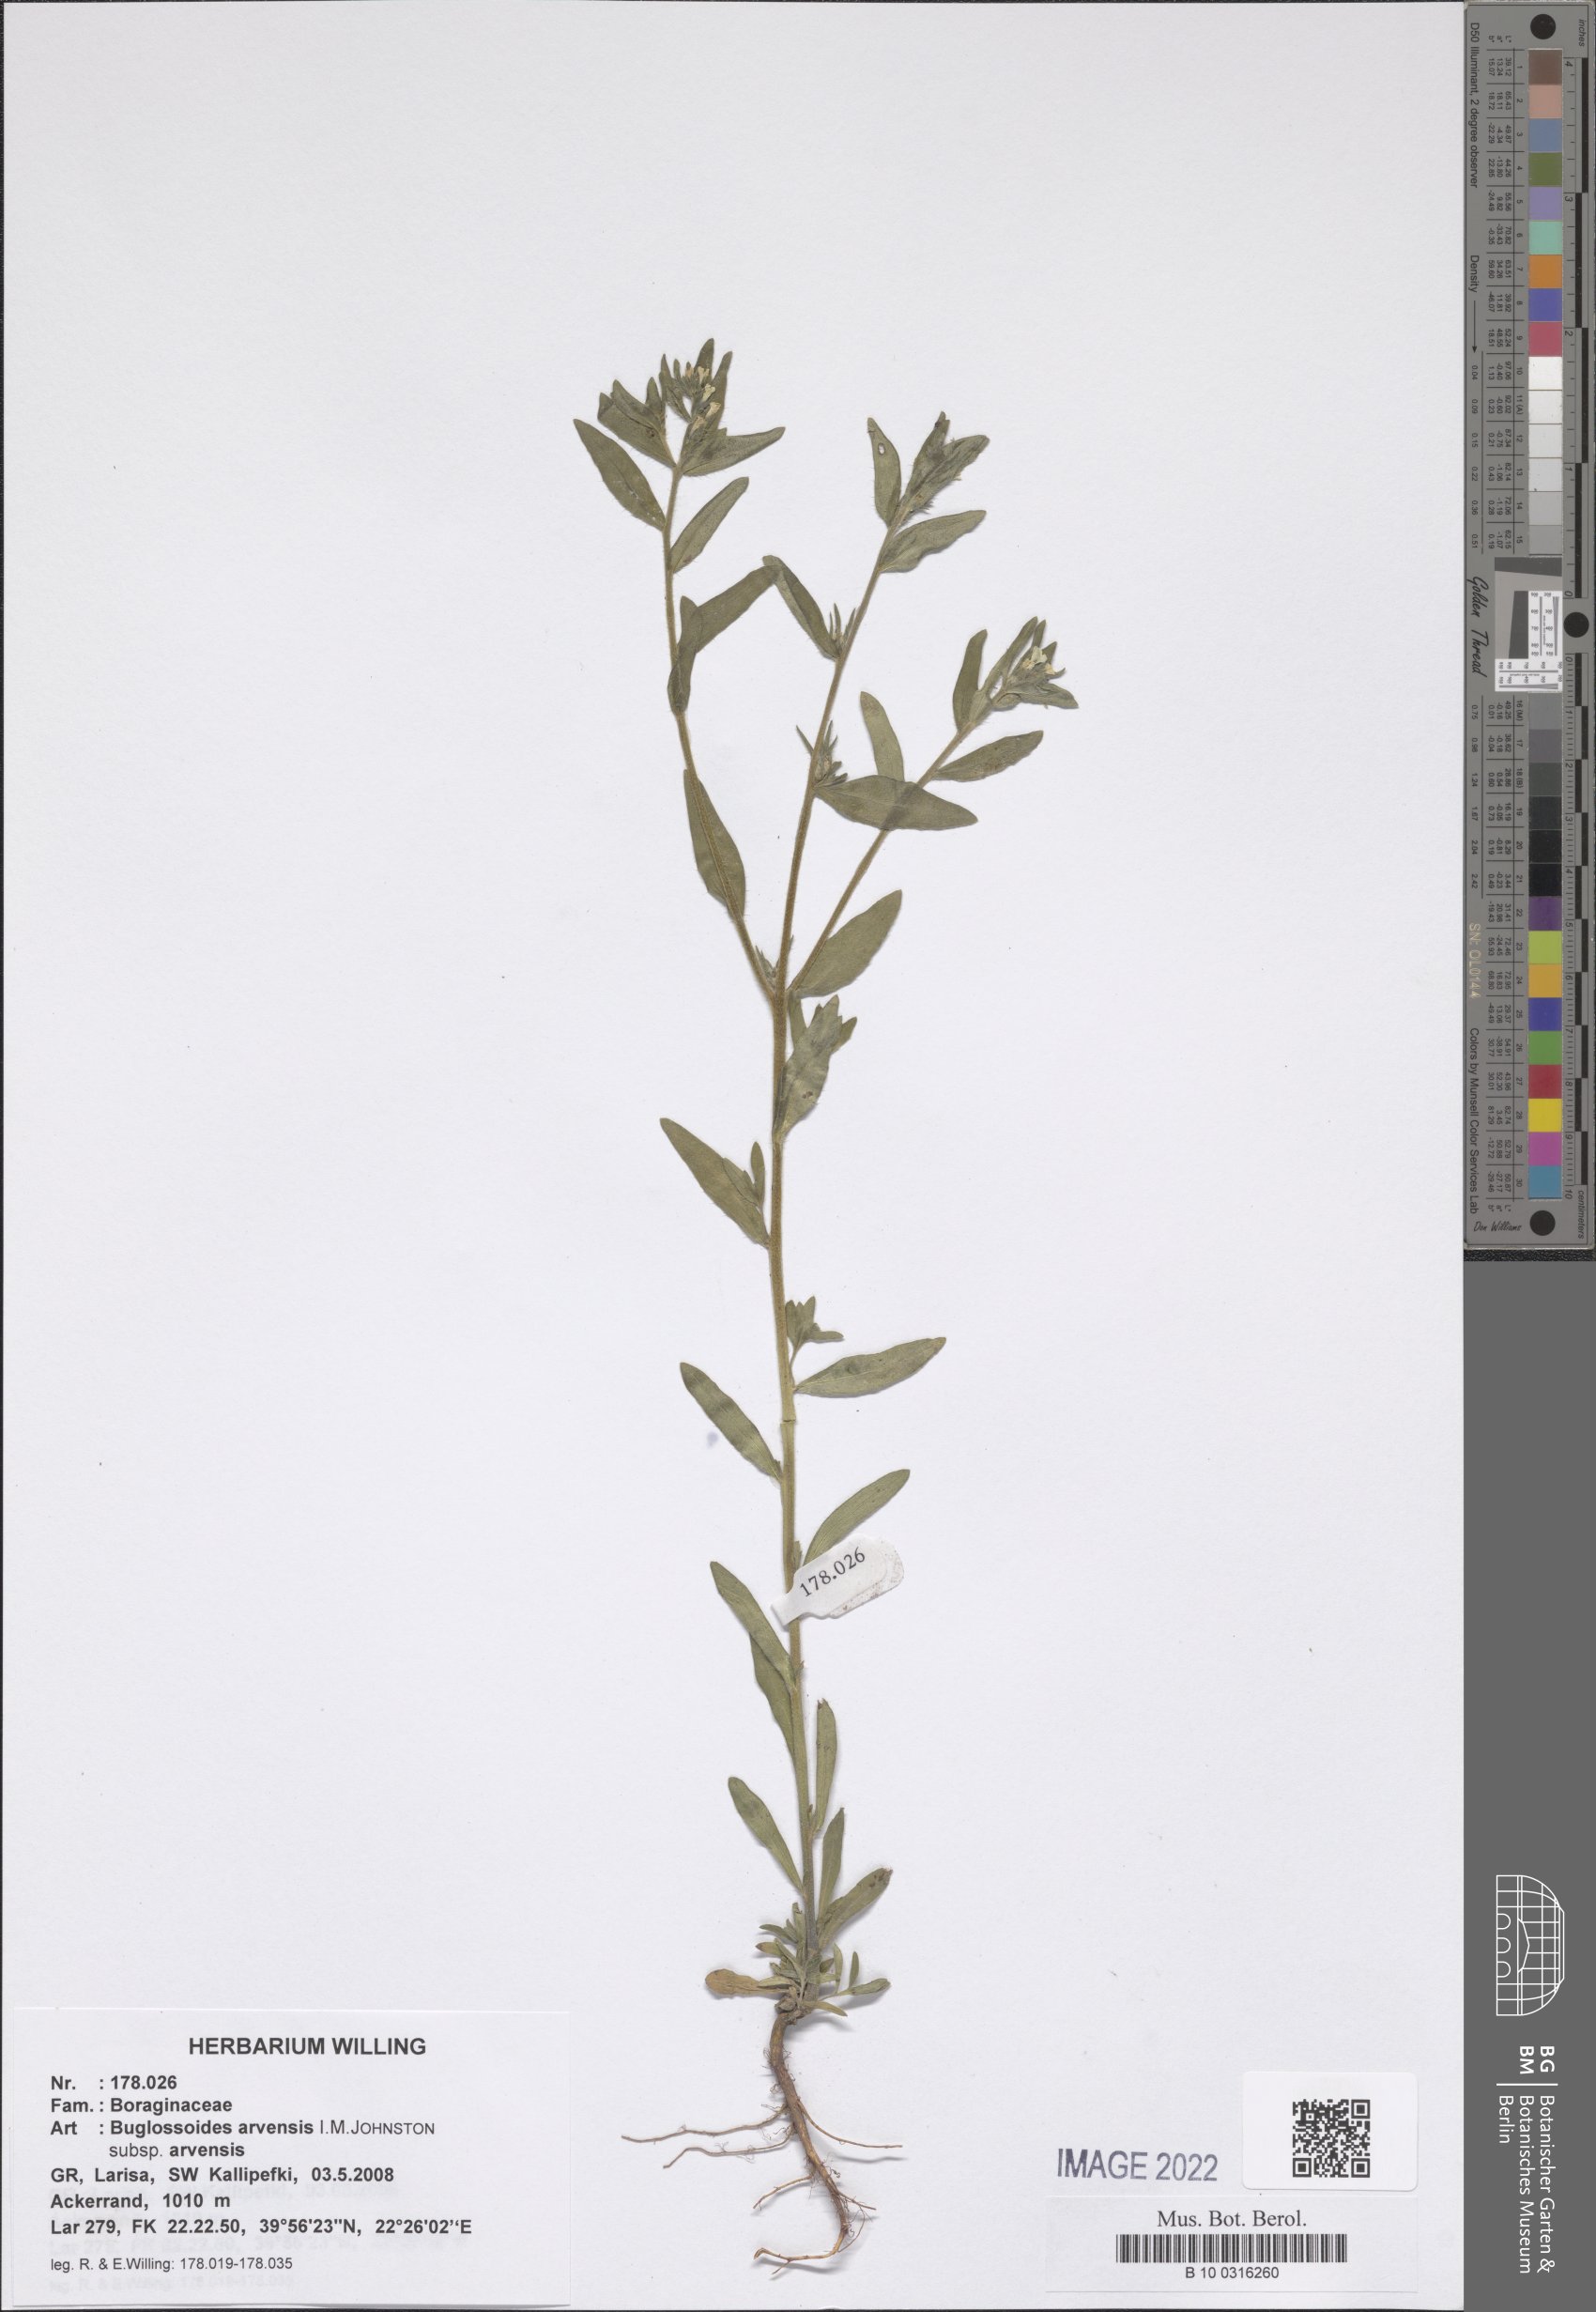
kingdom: Plantae
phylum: Tracheophyta
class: Magnoliopsida
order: Boraginales
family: Boraginaceae
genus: Buglossoides
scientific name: Buglossoides arvensis
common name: Corn gromwell
